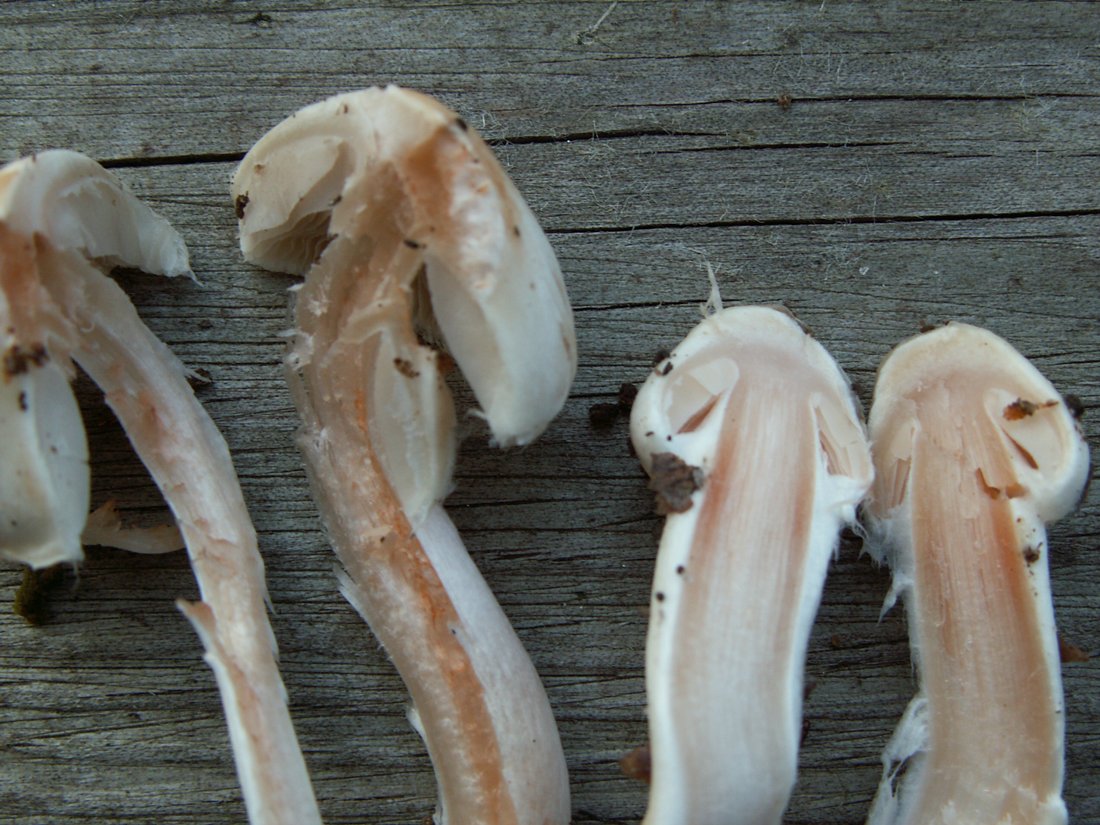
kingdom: Fungi
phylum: Basidiomycota
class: Agaricomycetes
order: Agaricales
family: Inocybaceae
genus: Inocybe
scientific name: Inocybe
